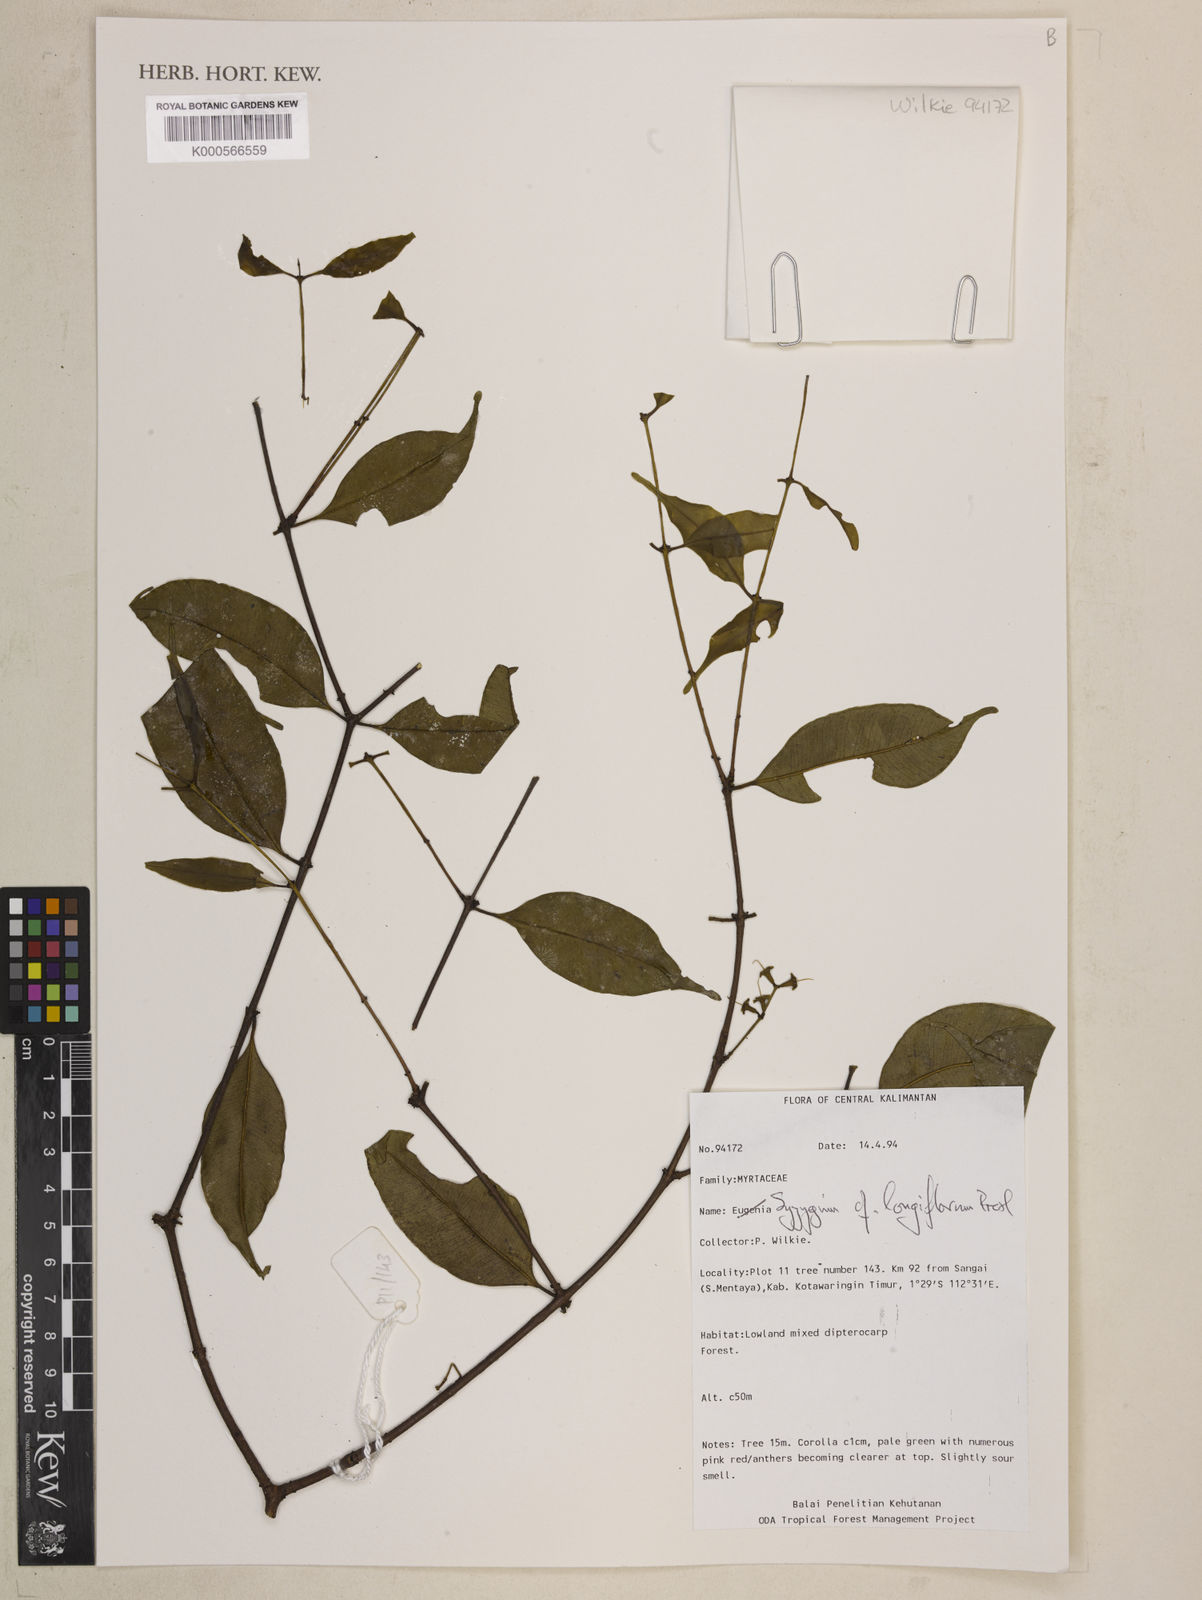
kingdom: Plantae
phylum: Tracheophyta
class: Magnoliopsida
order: Myrtales
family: Myrtaceae
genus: Syzygium
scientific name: Syzygium lineatum
